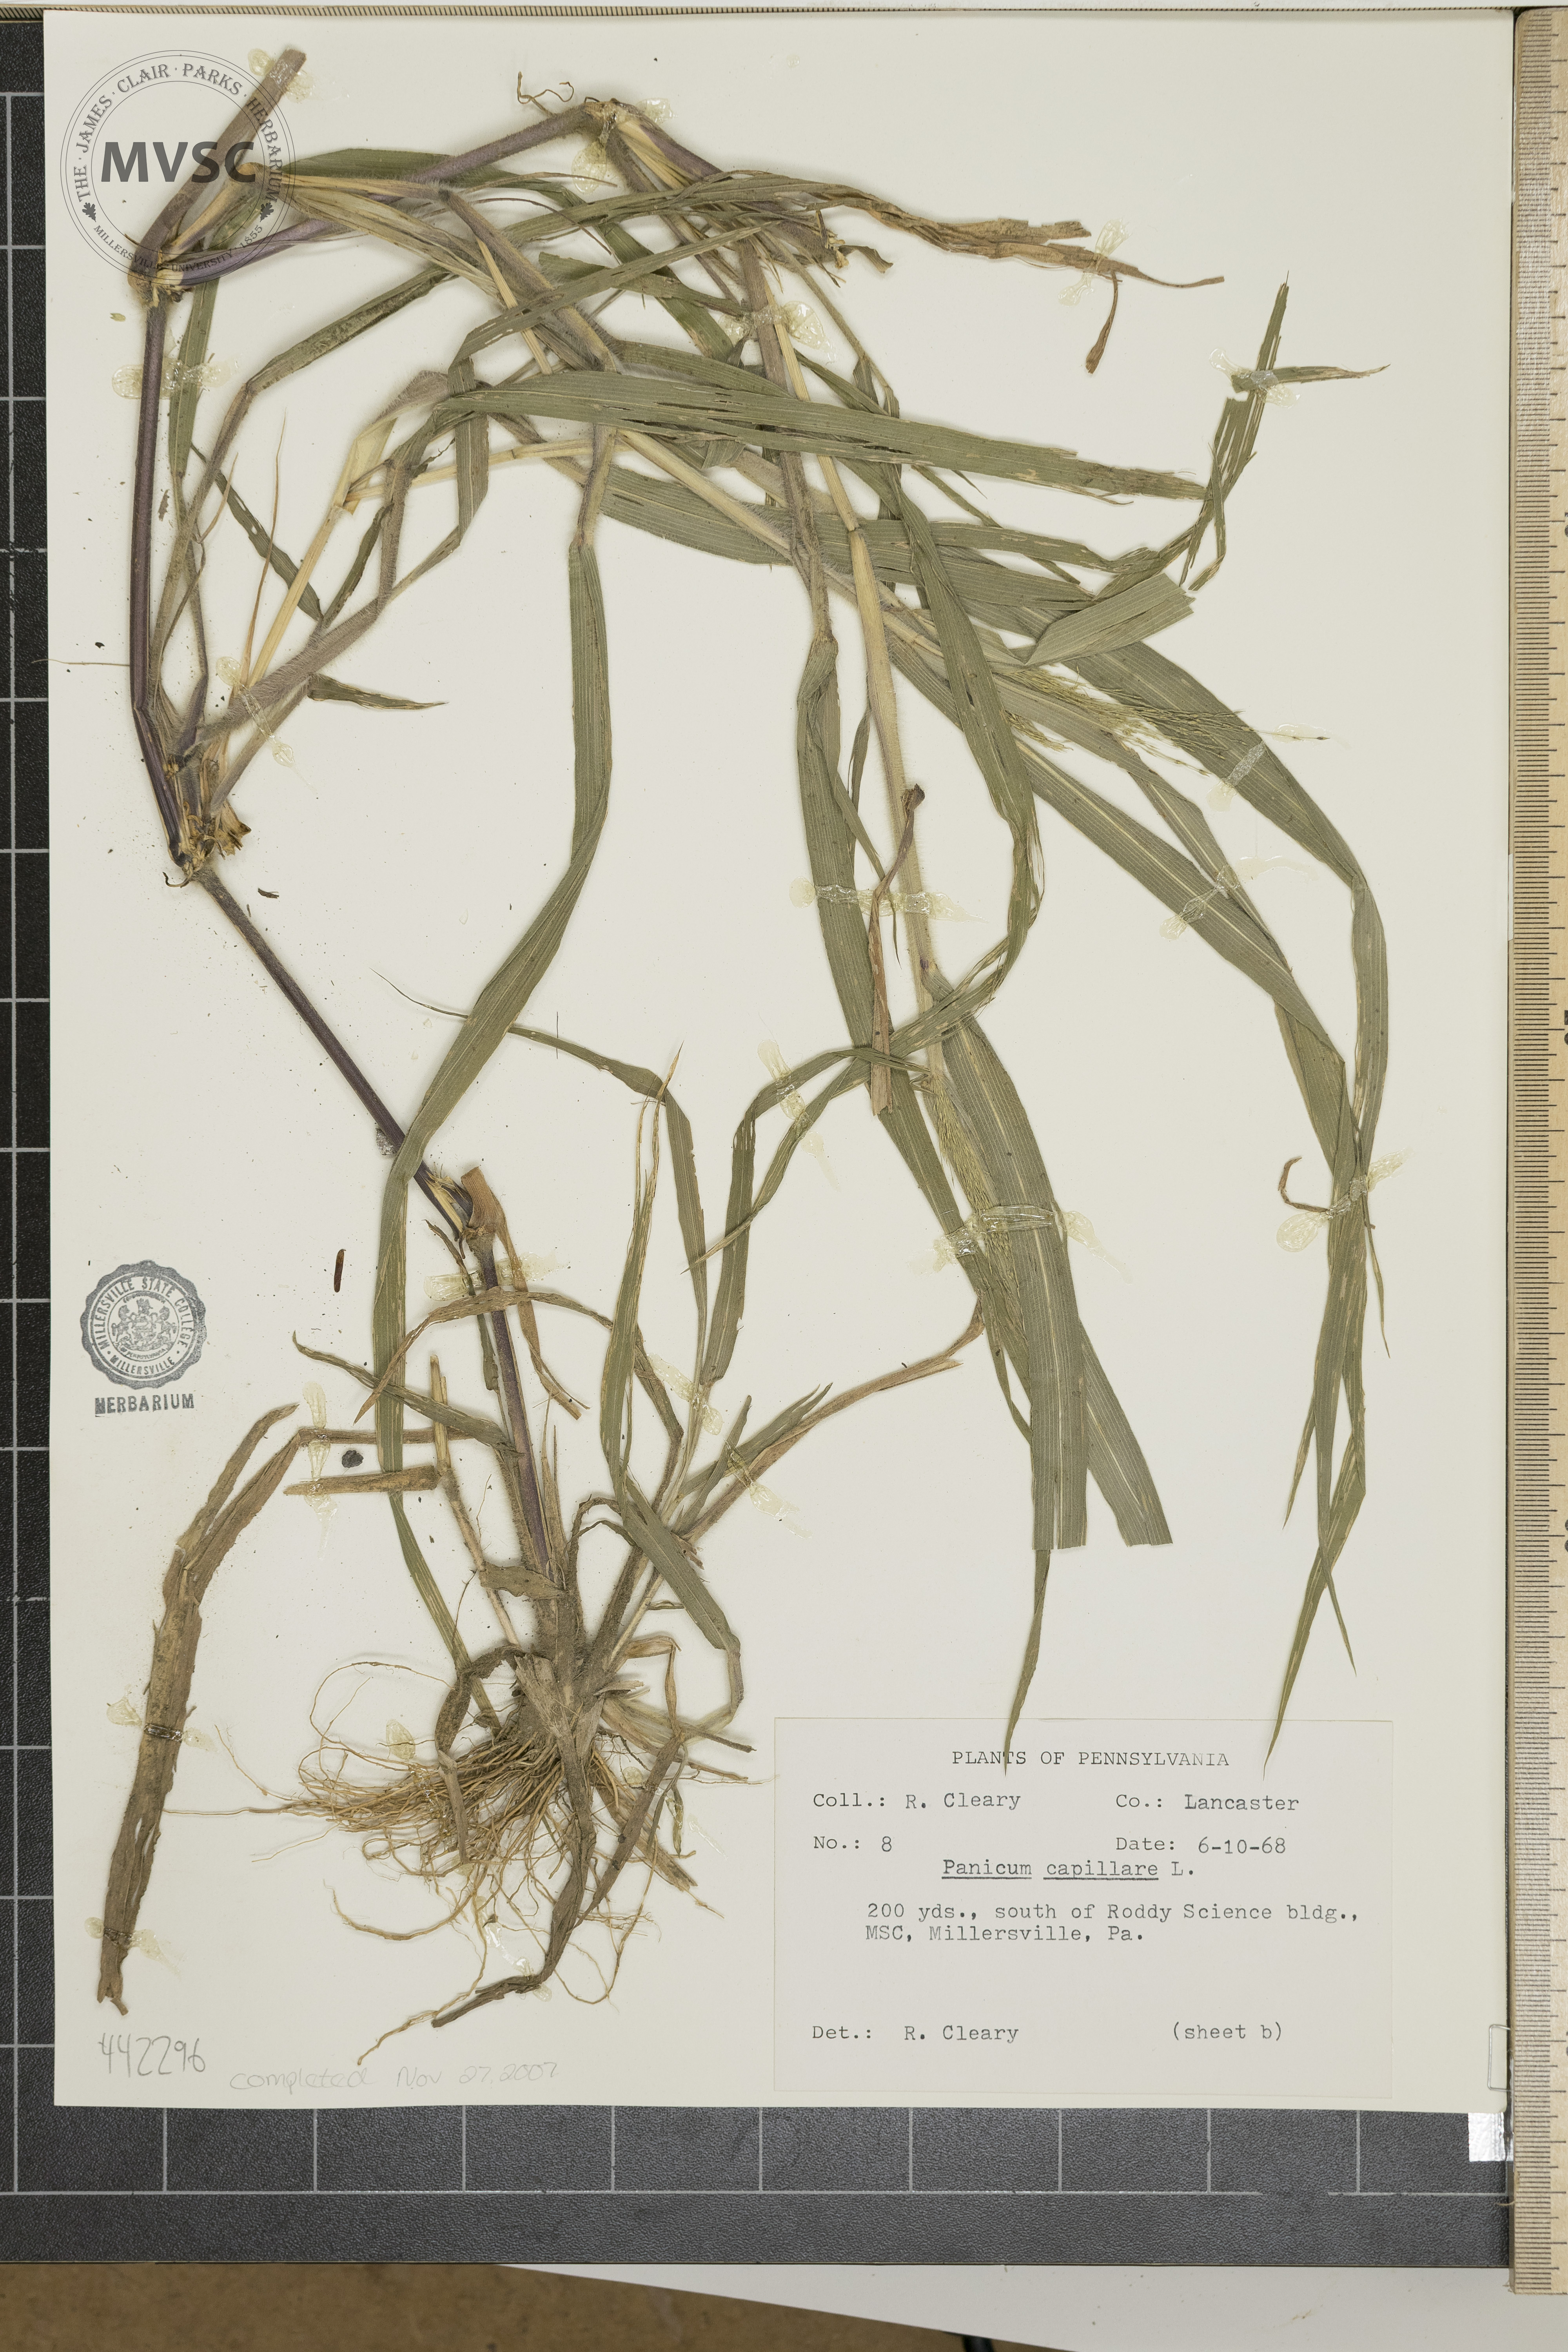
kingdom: Plantae
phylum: Tracheophyta
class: Liliopsida
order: Poales
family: Poaceae
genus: Panicum
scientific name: Panicum capillare
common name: Witch-grass
